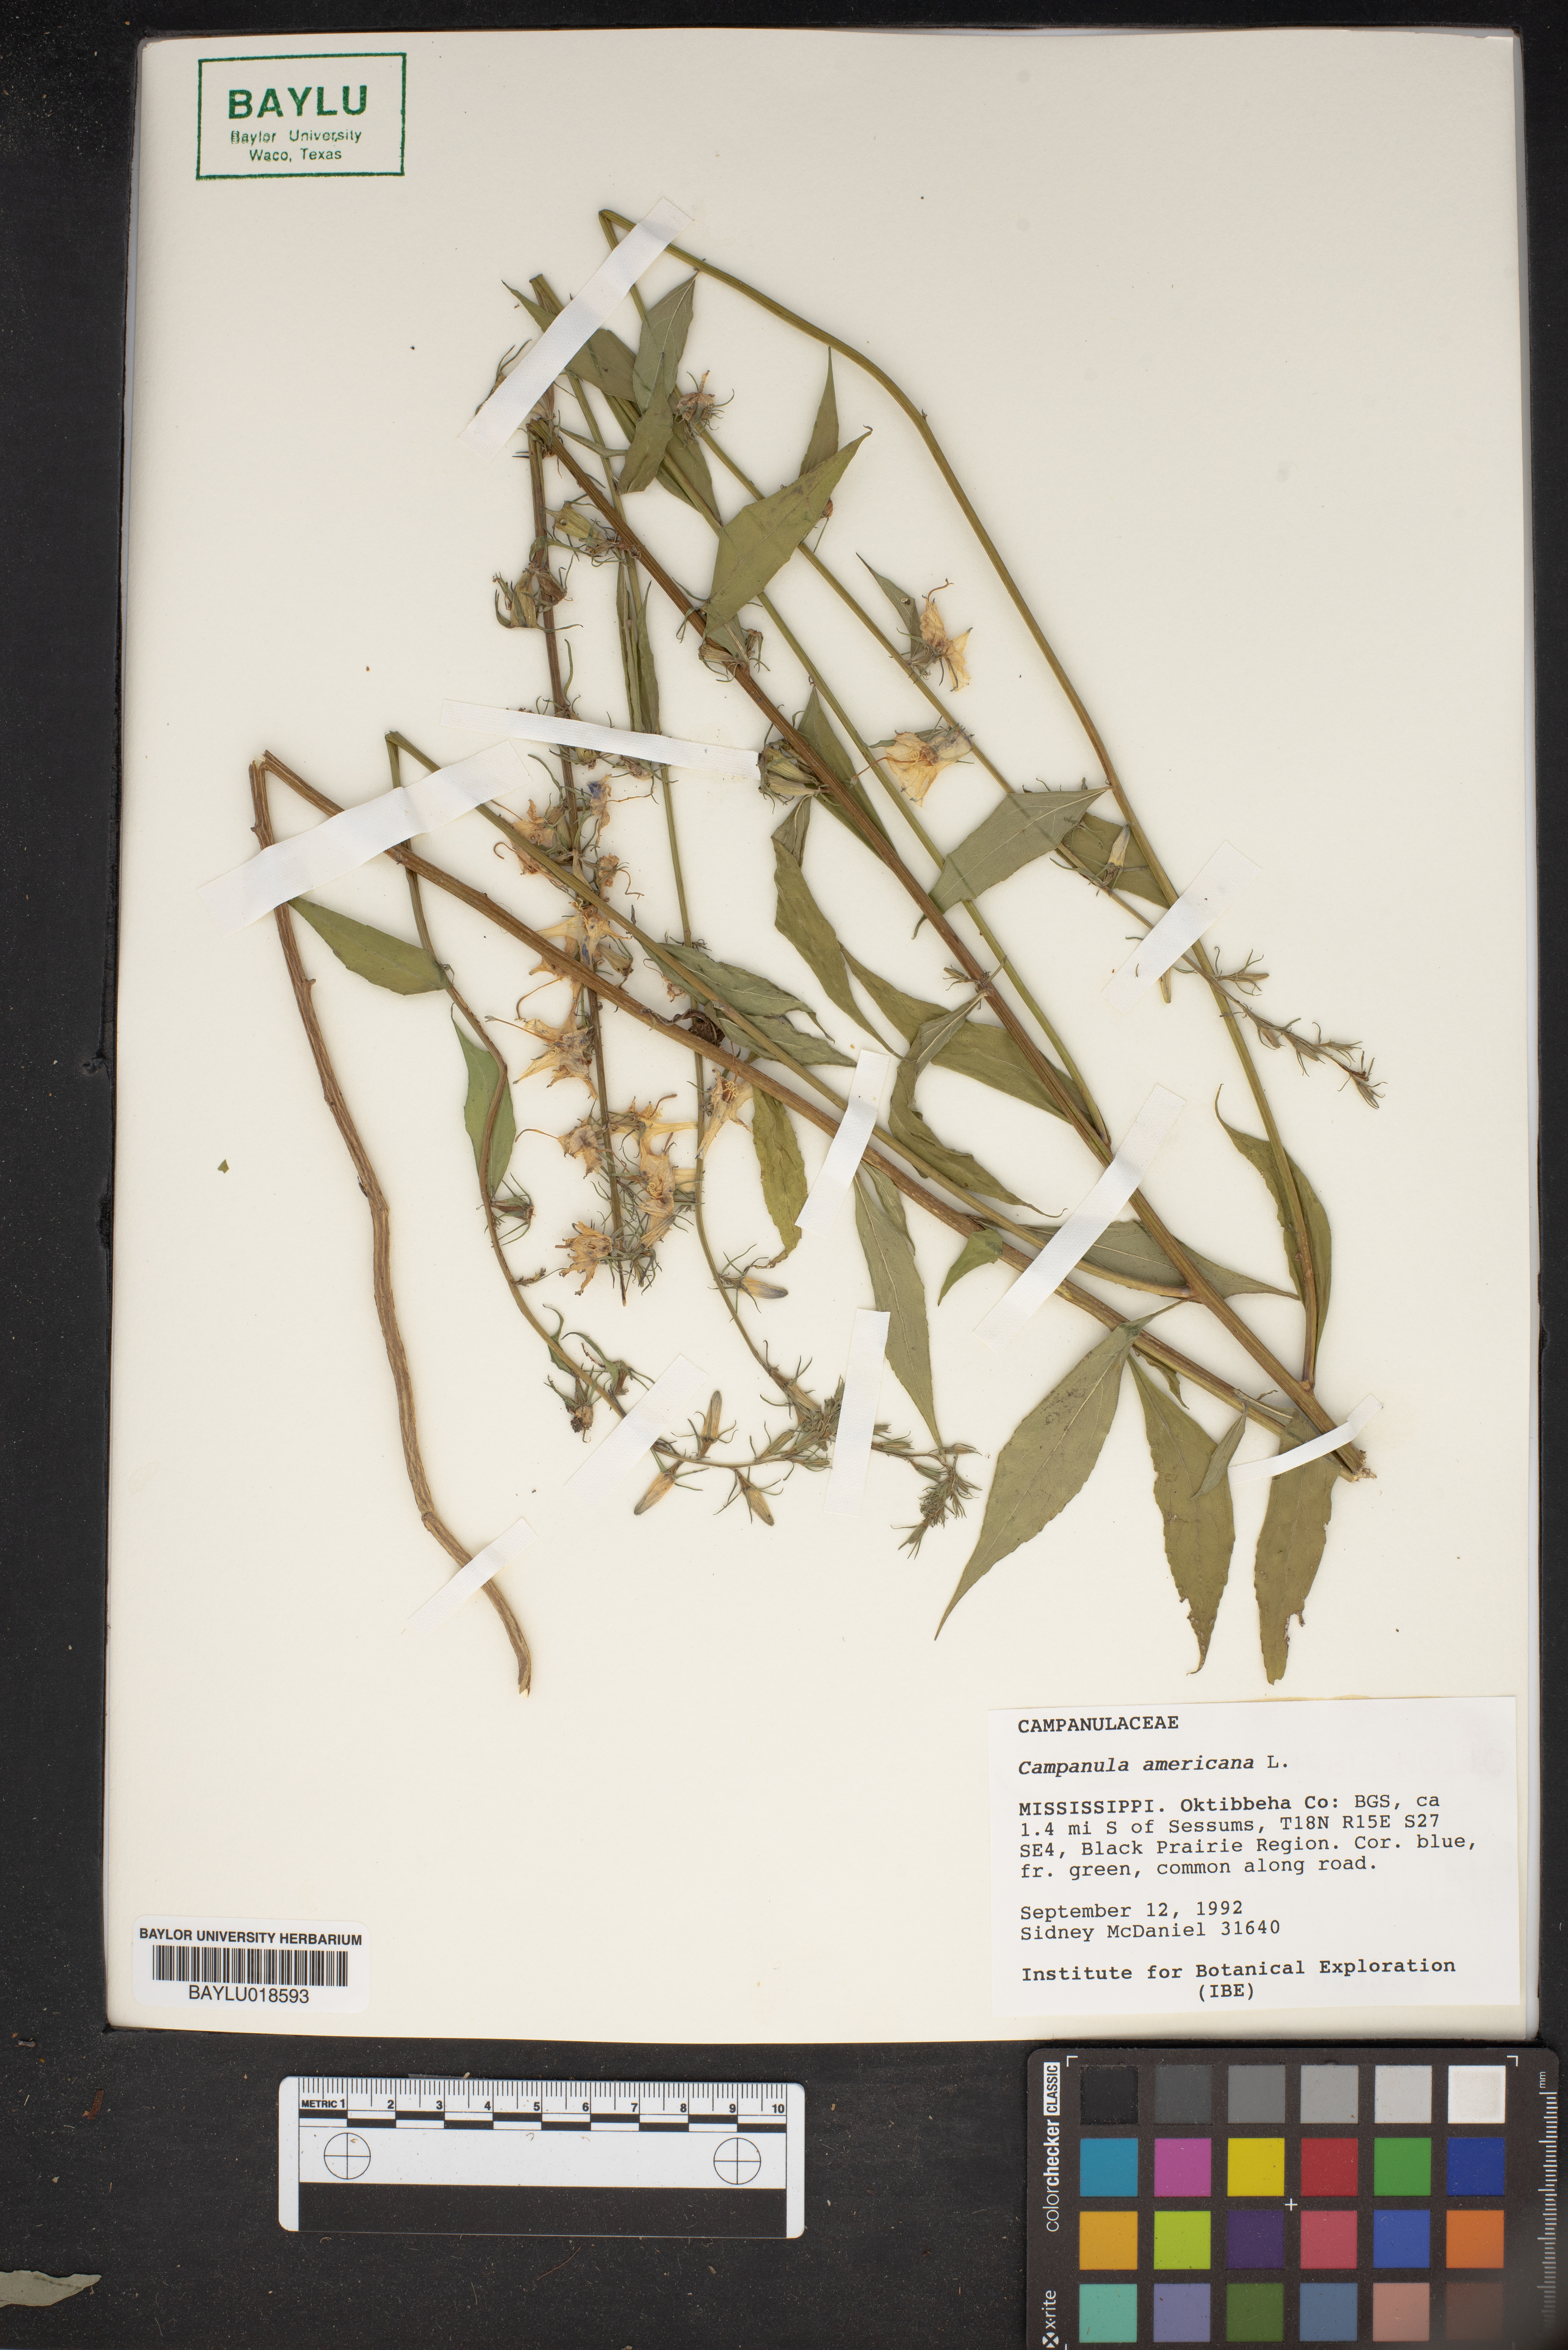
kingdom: Plantae
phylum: Tracheophyta
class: Magnoliopsida
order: Asterales
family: Campanulaceae
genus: Campanula
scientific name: Campanula americana
